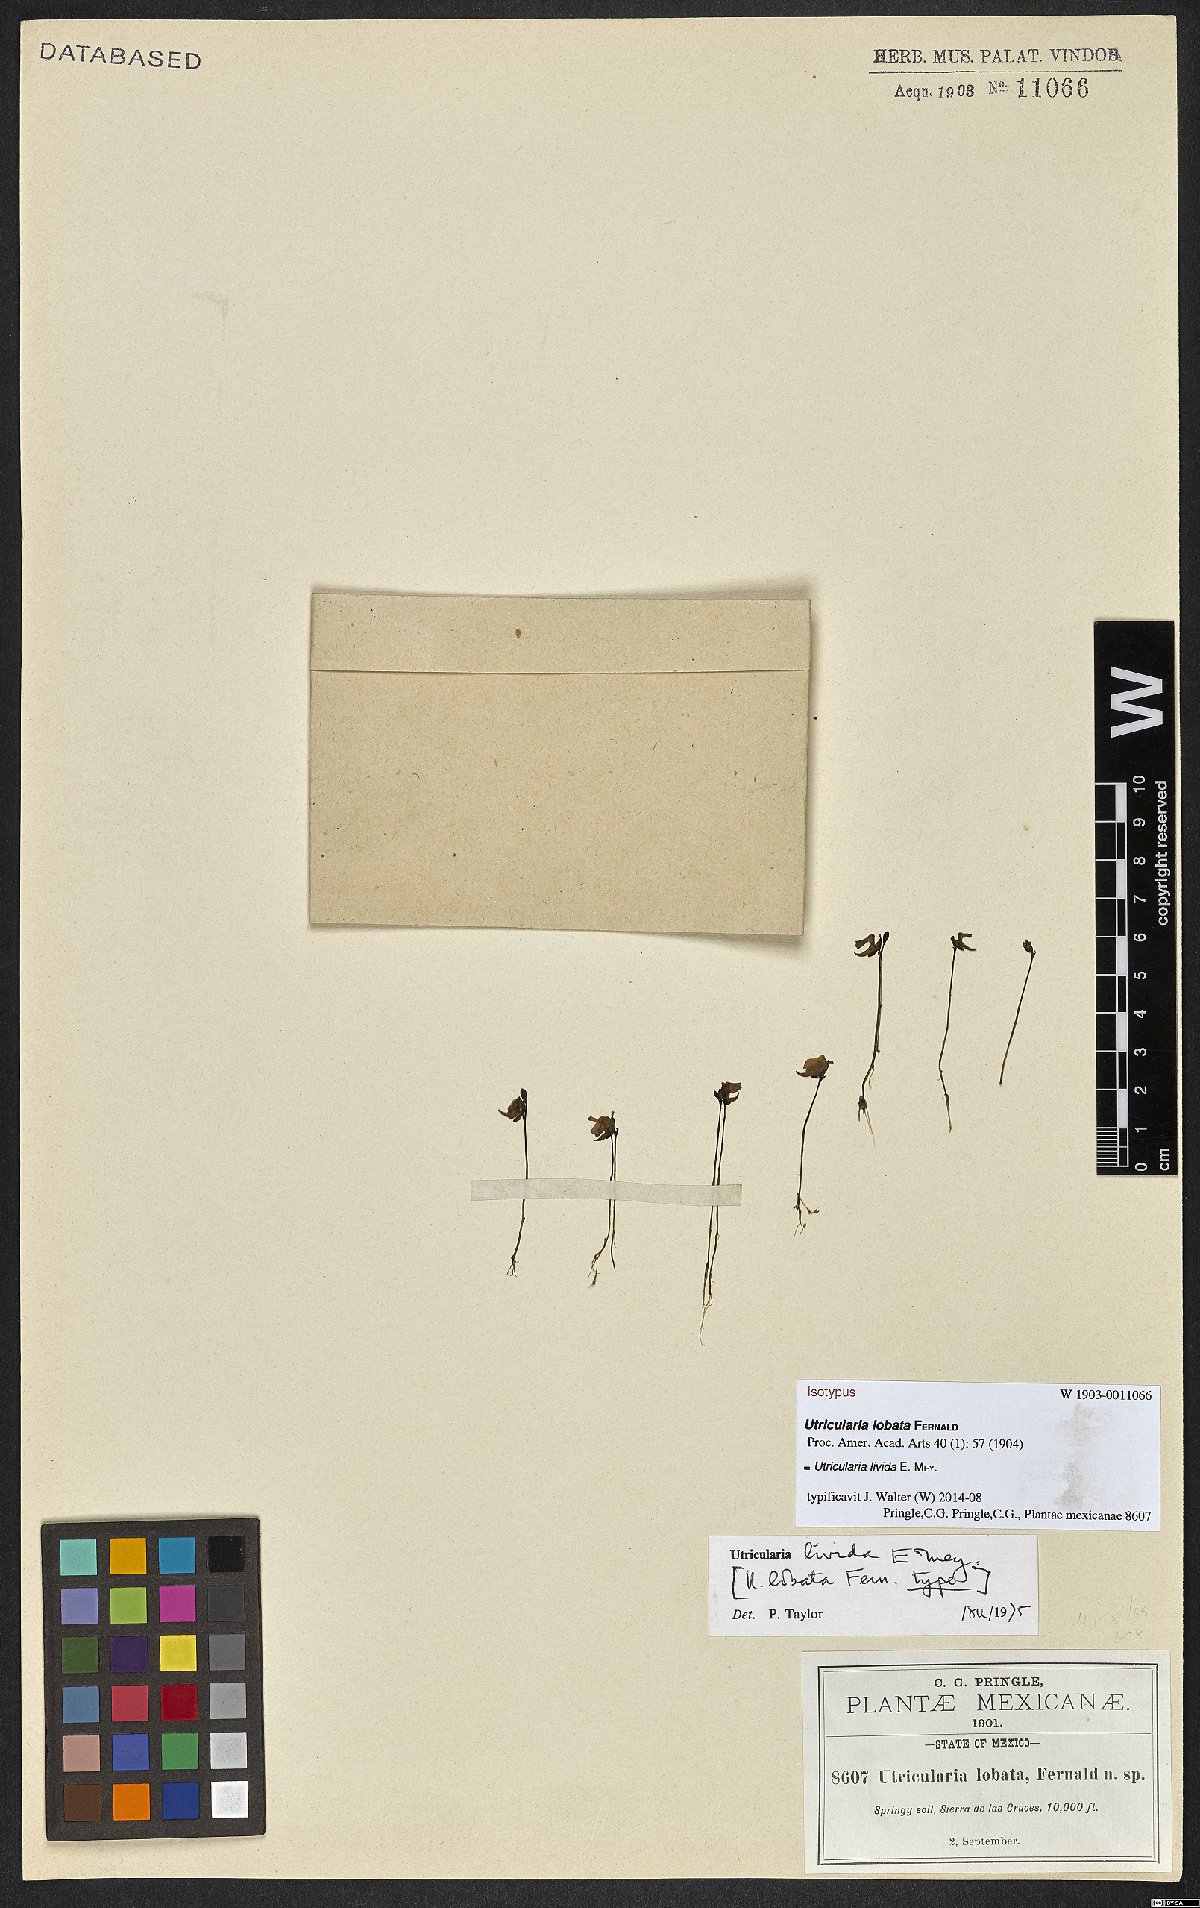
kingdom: Plantae
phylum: Tracheophyta
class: Magnoliopsida
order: Lamiales
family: Lentibulariaceae
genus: Utricularia
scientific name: Utricularia livida
